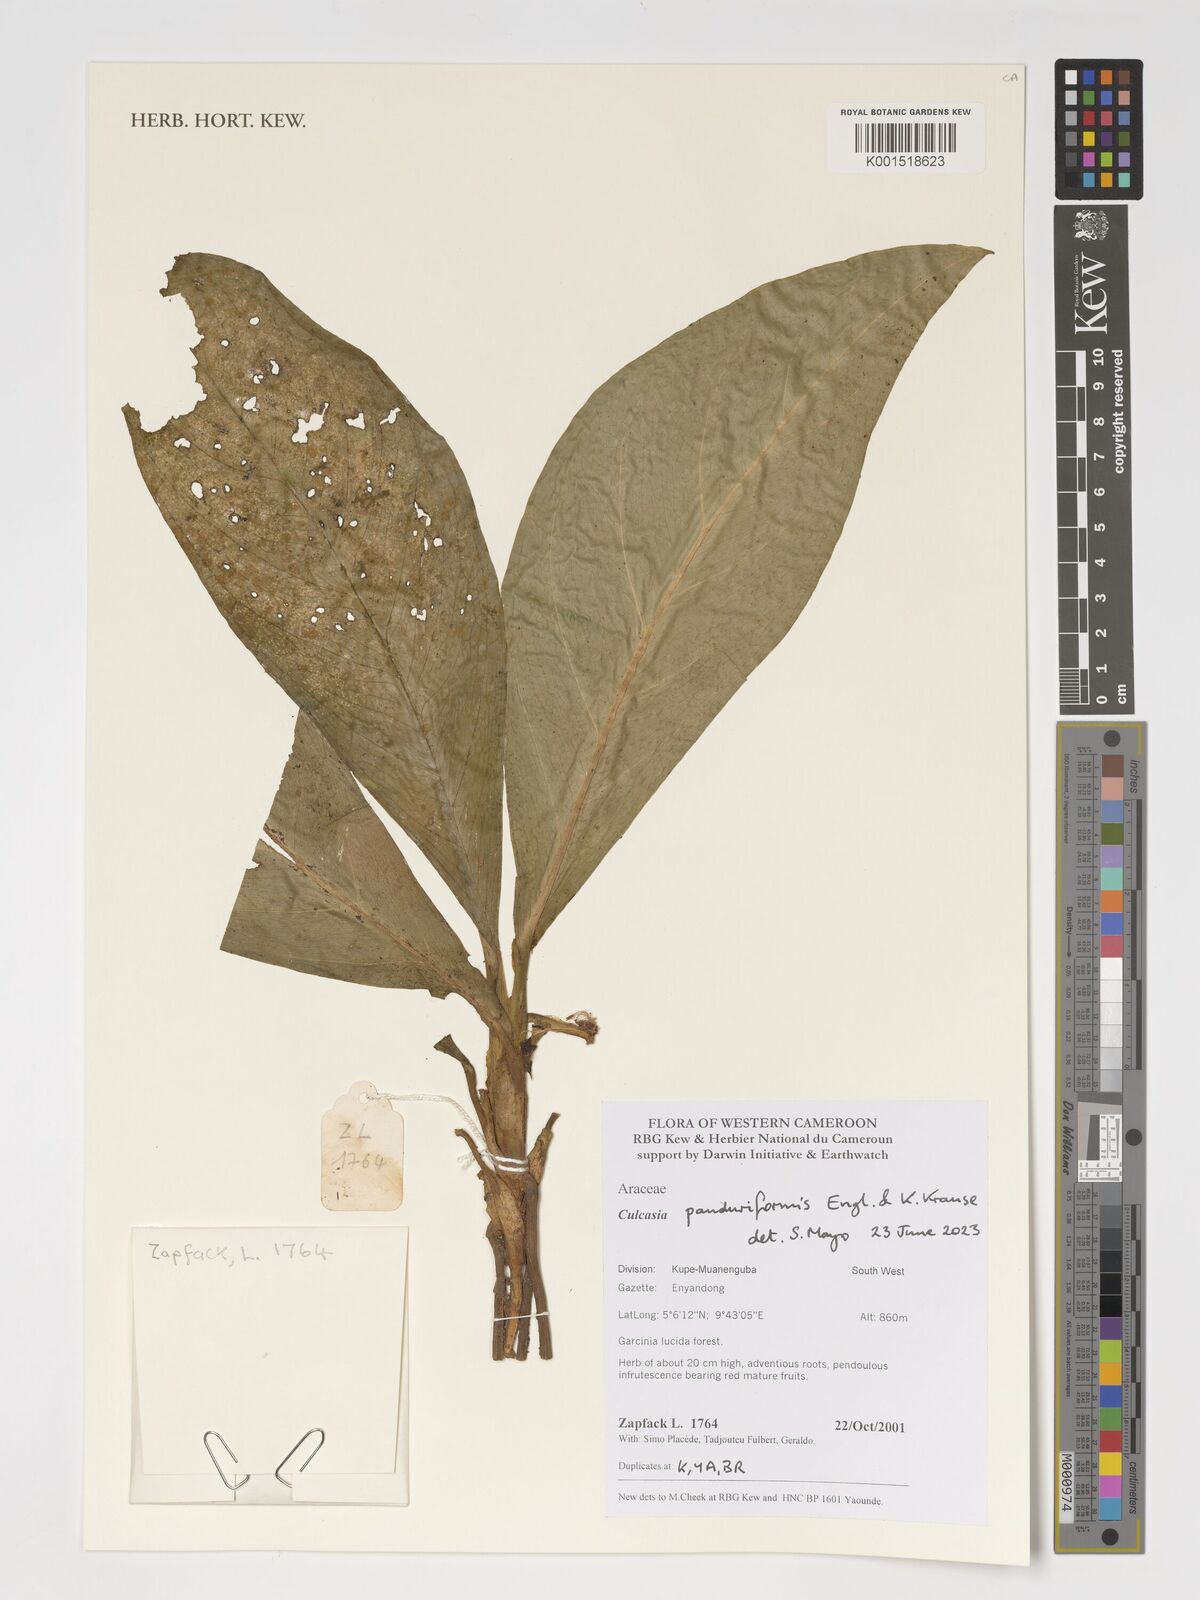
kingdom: Plantae
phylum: Tracheophyta
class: Liliopsida
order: Alismatales
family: Araceae
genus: Culcasia
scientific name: Culcasia panduriformis
